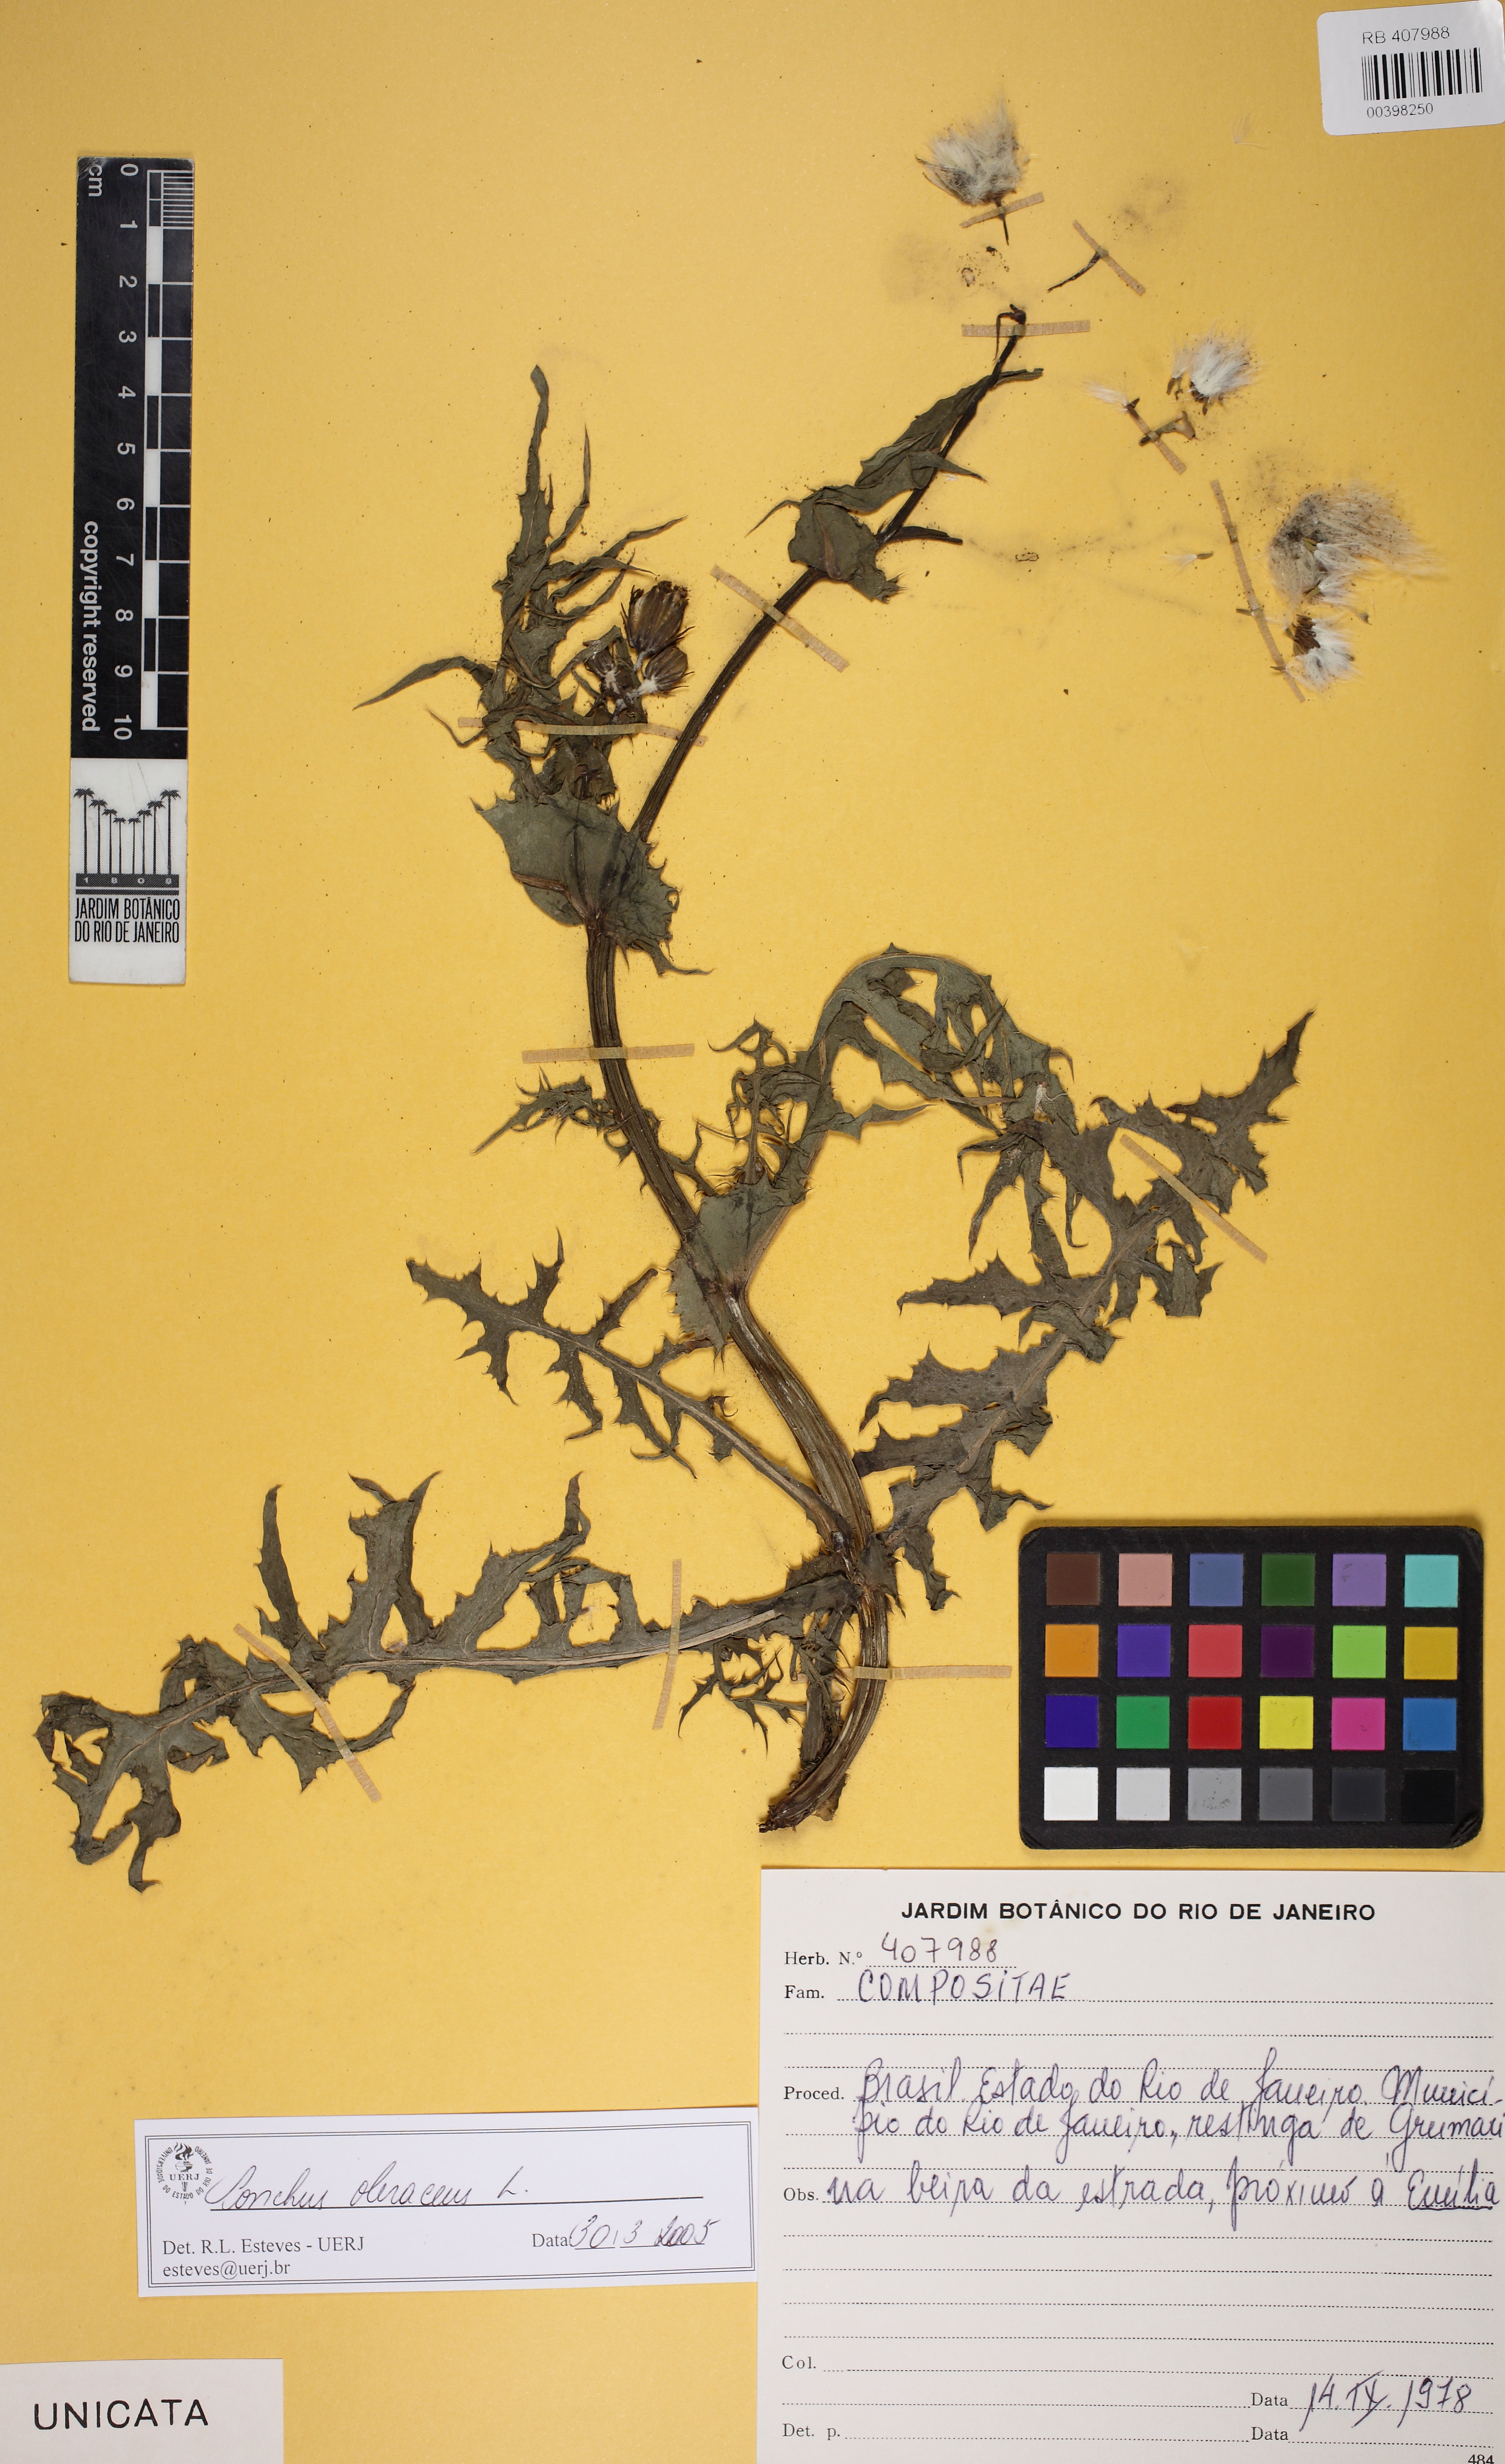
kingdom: Plantae
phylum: Tracheophyta
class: Magnoliopsida
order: Asterales
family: Asteraceae
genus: Sonchus
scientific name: Sonchus oleraceus
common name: Common sowthistle
